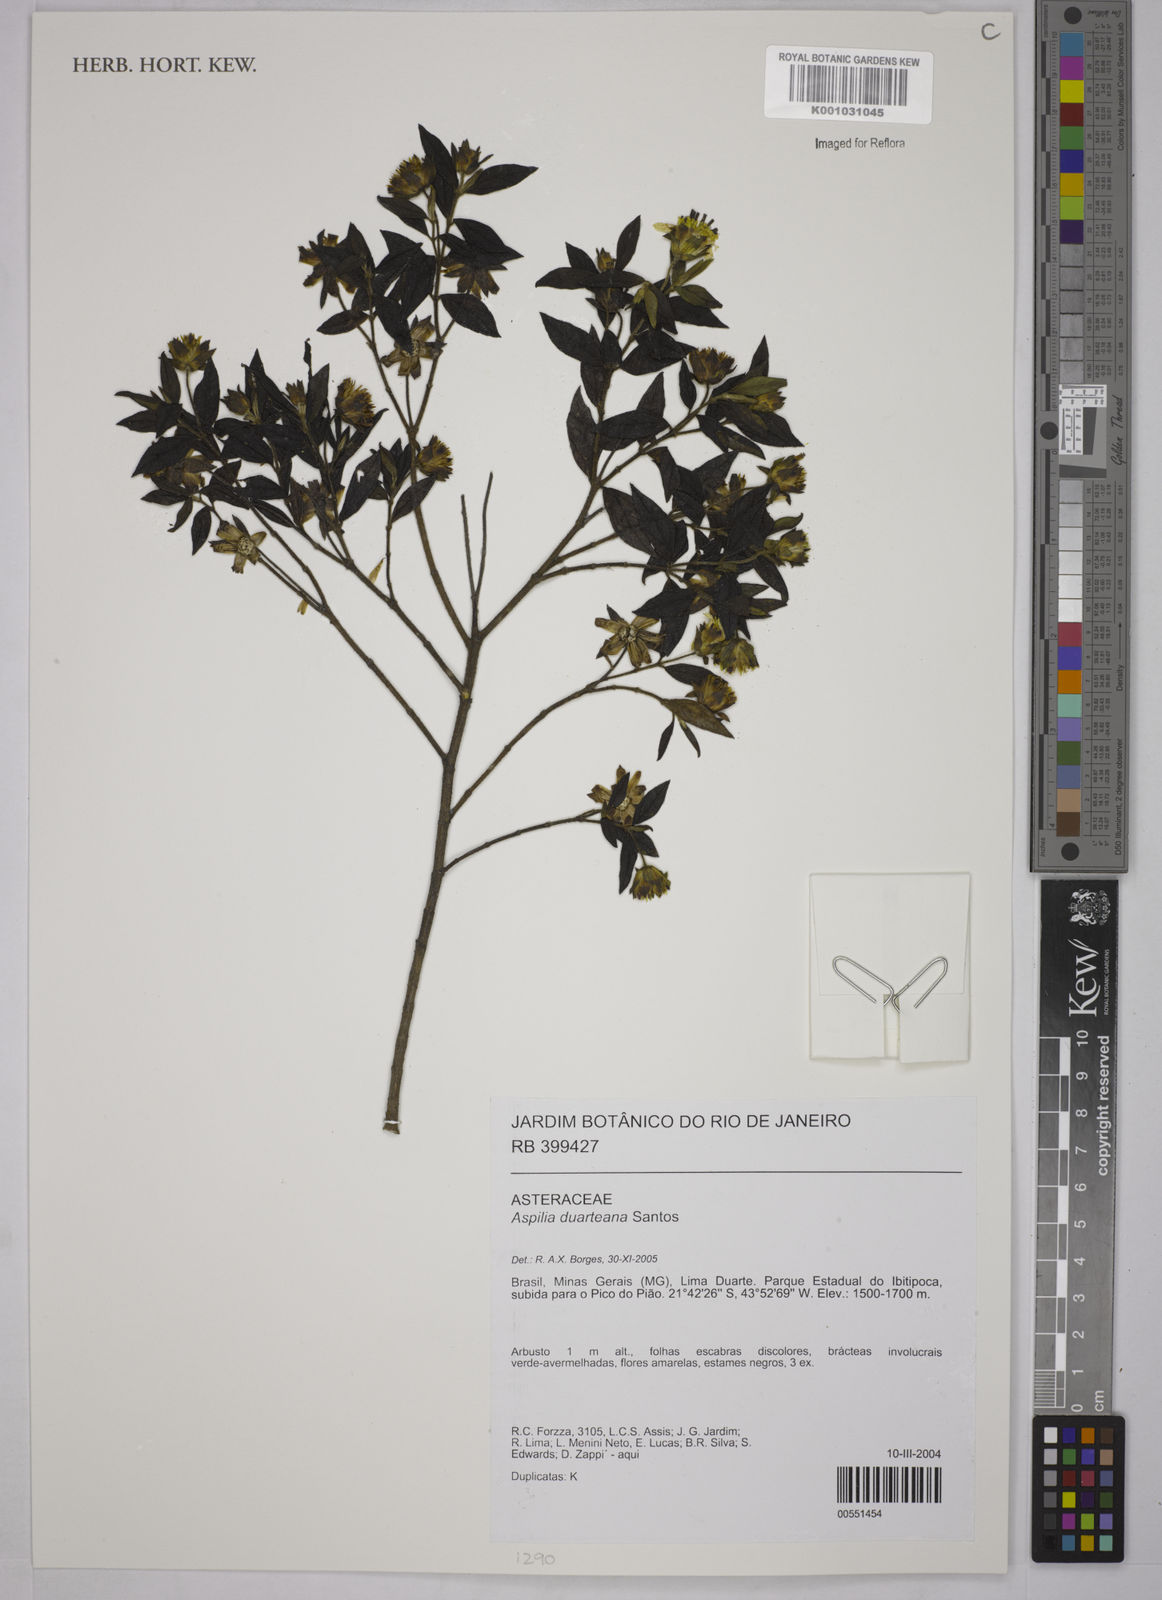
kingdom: Plantae
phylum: Tracheophyta
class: Magnoliopsida
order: Asterales
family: Asteraceae
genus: Aspilia
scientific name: Aspilia duarteana
